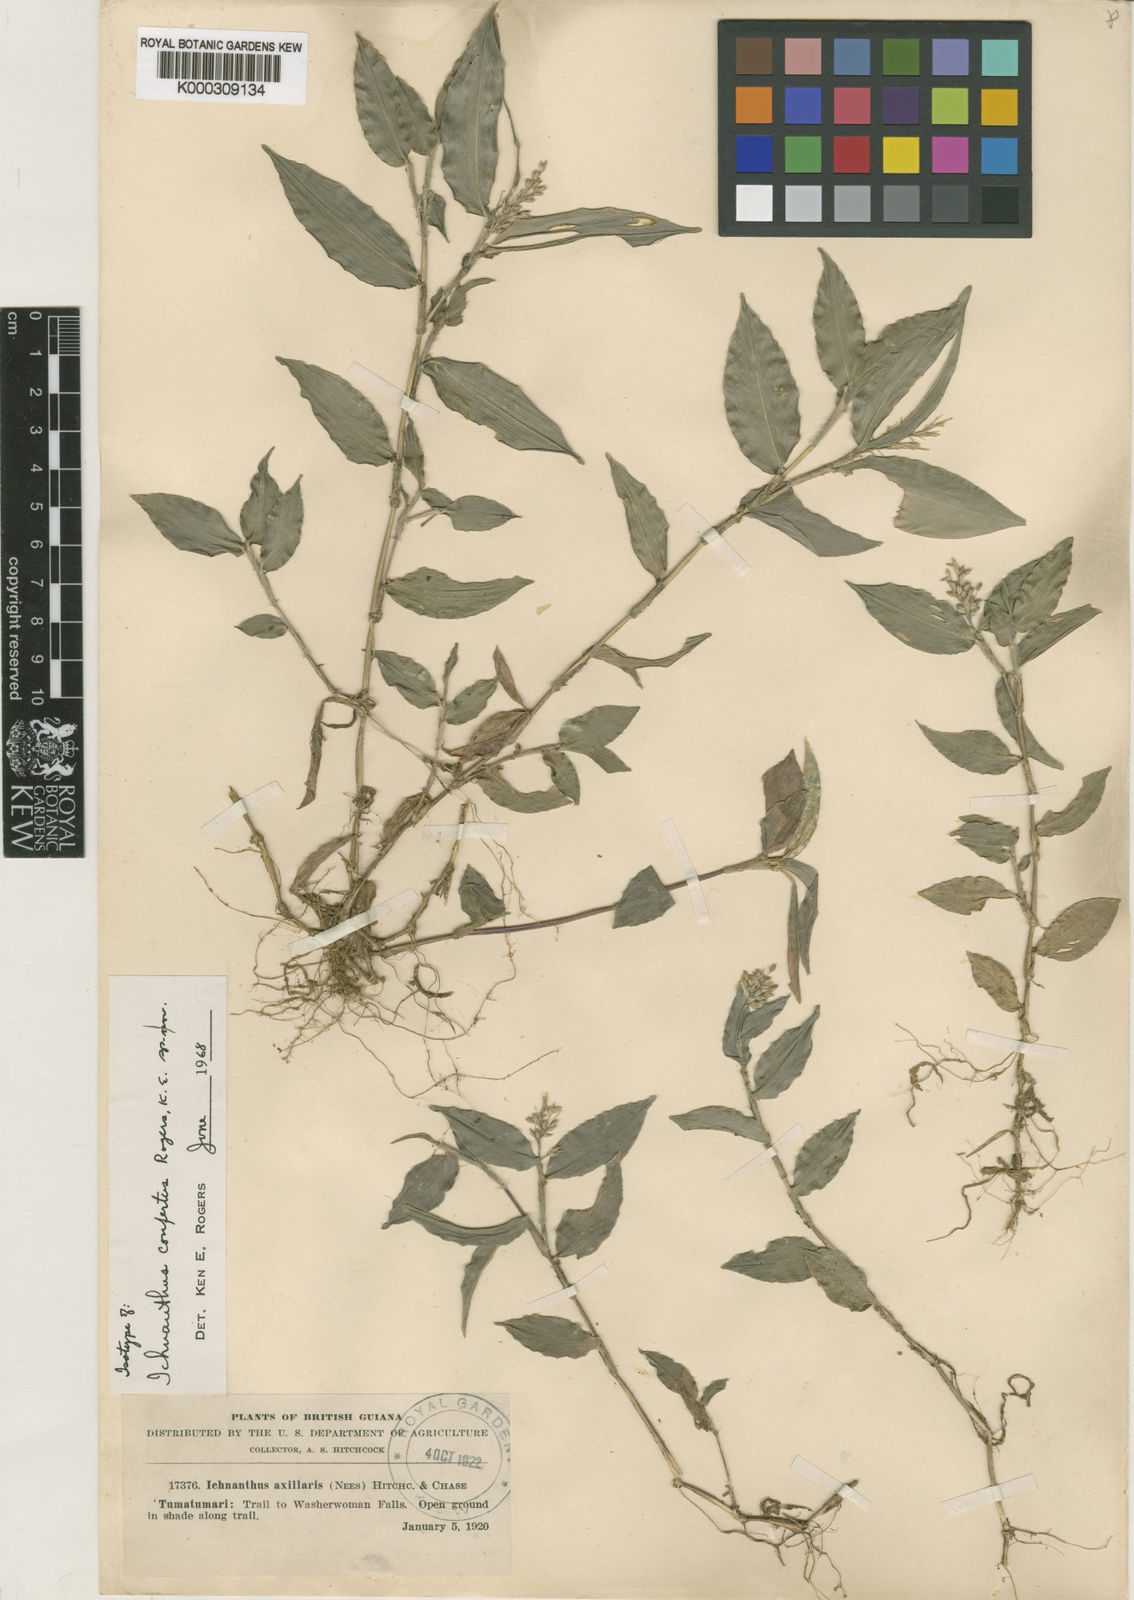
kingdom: Plantae
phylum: Tracheophyta
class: Liliopsida
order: Poales
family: Poaceae
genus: Ichnanthus
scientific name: Ichnanthus pallens
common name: Water grass
